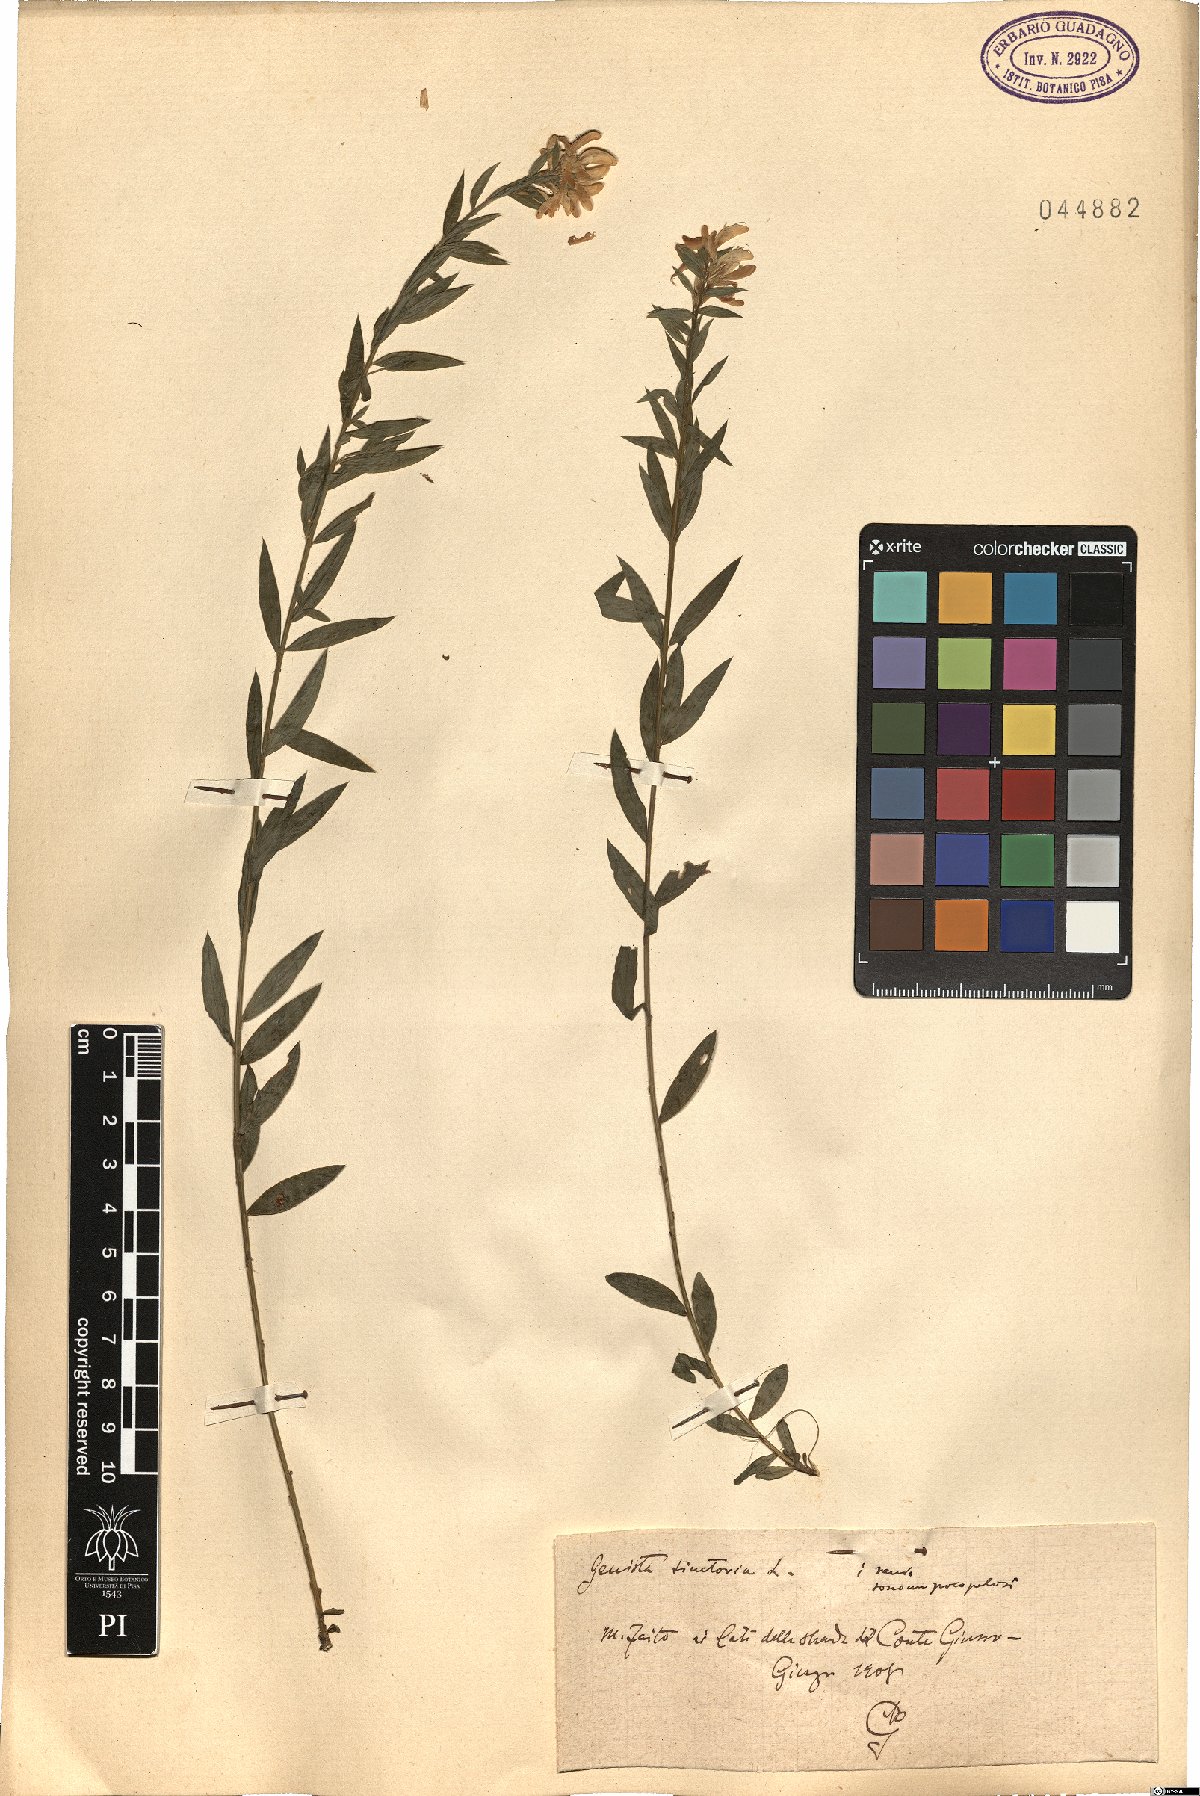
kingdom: Plantae
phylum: Tracheophyta
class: Magnoliopsida
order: Fabales
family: Fabaceae
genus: Genista
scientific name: Genista tinctoria
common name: Dyer's greenweed
